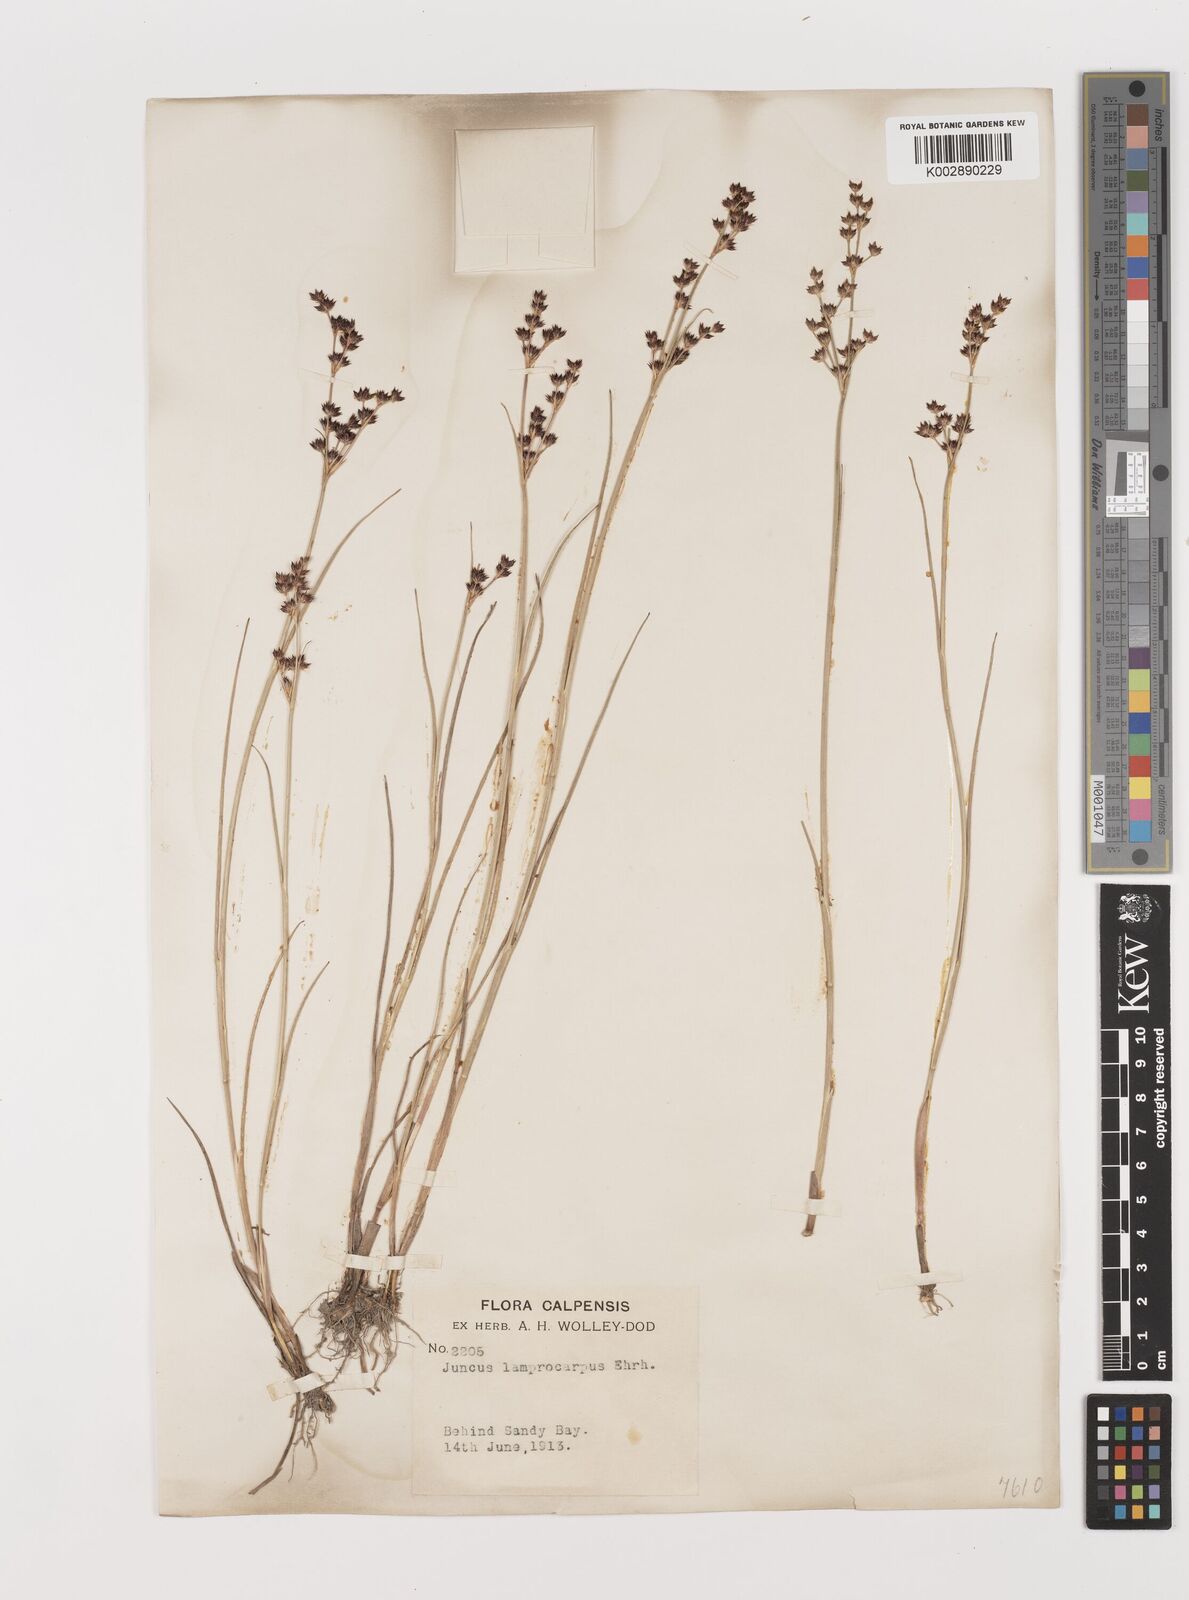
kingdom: Plantae
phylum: Tracheophyta
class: Liliopsida
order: Poales
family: Juncaceae
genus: Juncus
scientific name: Juncus articulatus
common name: Jointed rush
